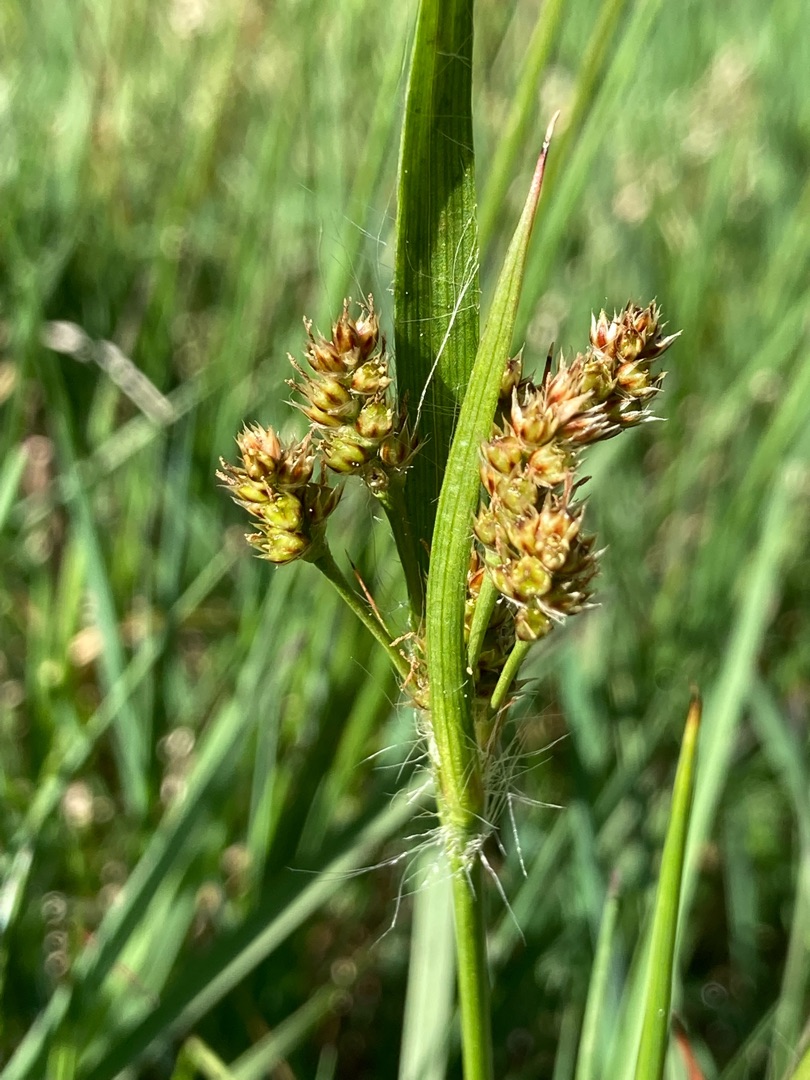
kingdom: Plantae
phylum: Tracheophyta
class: Liliopsida
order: Poales
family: Juncaceae
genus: Luzula
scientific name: Luzula multiflora
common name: Mangeblomstret frytle
